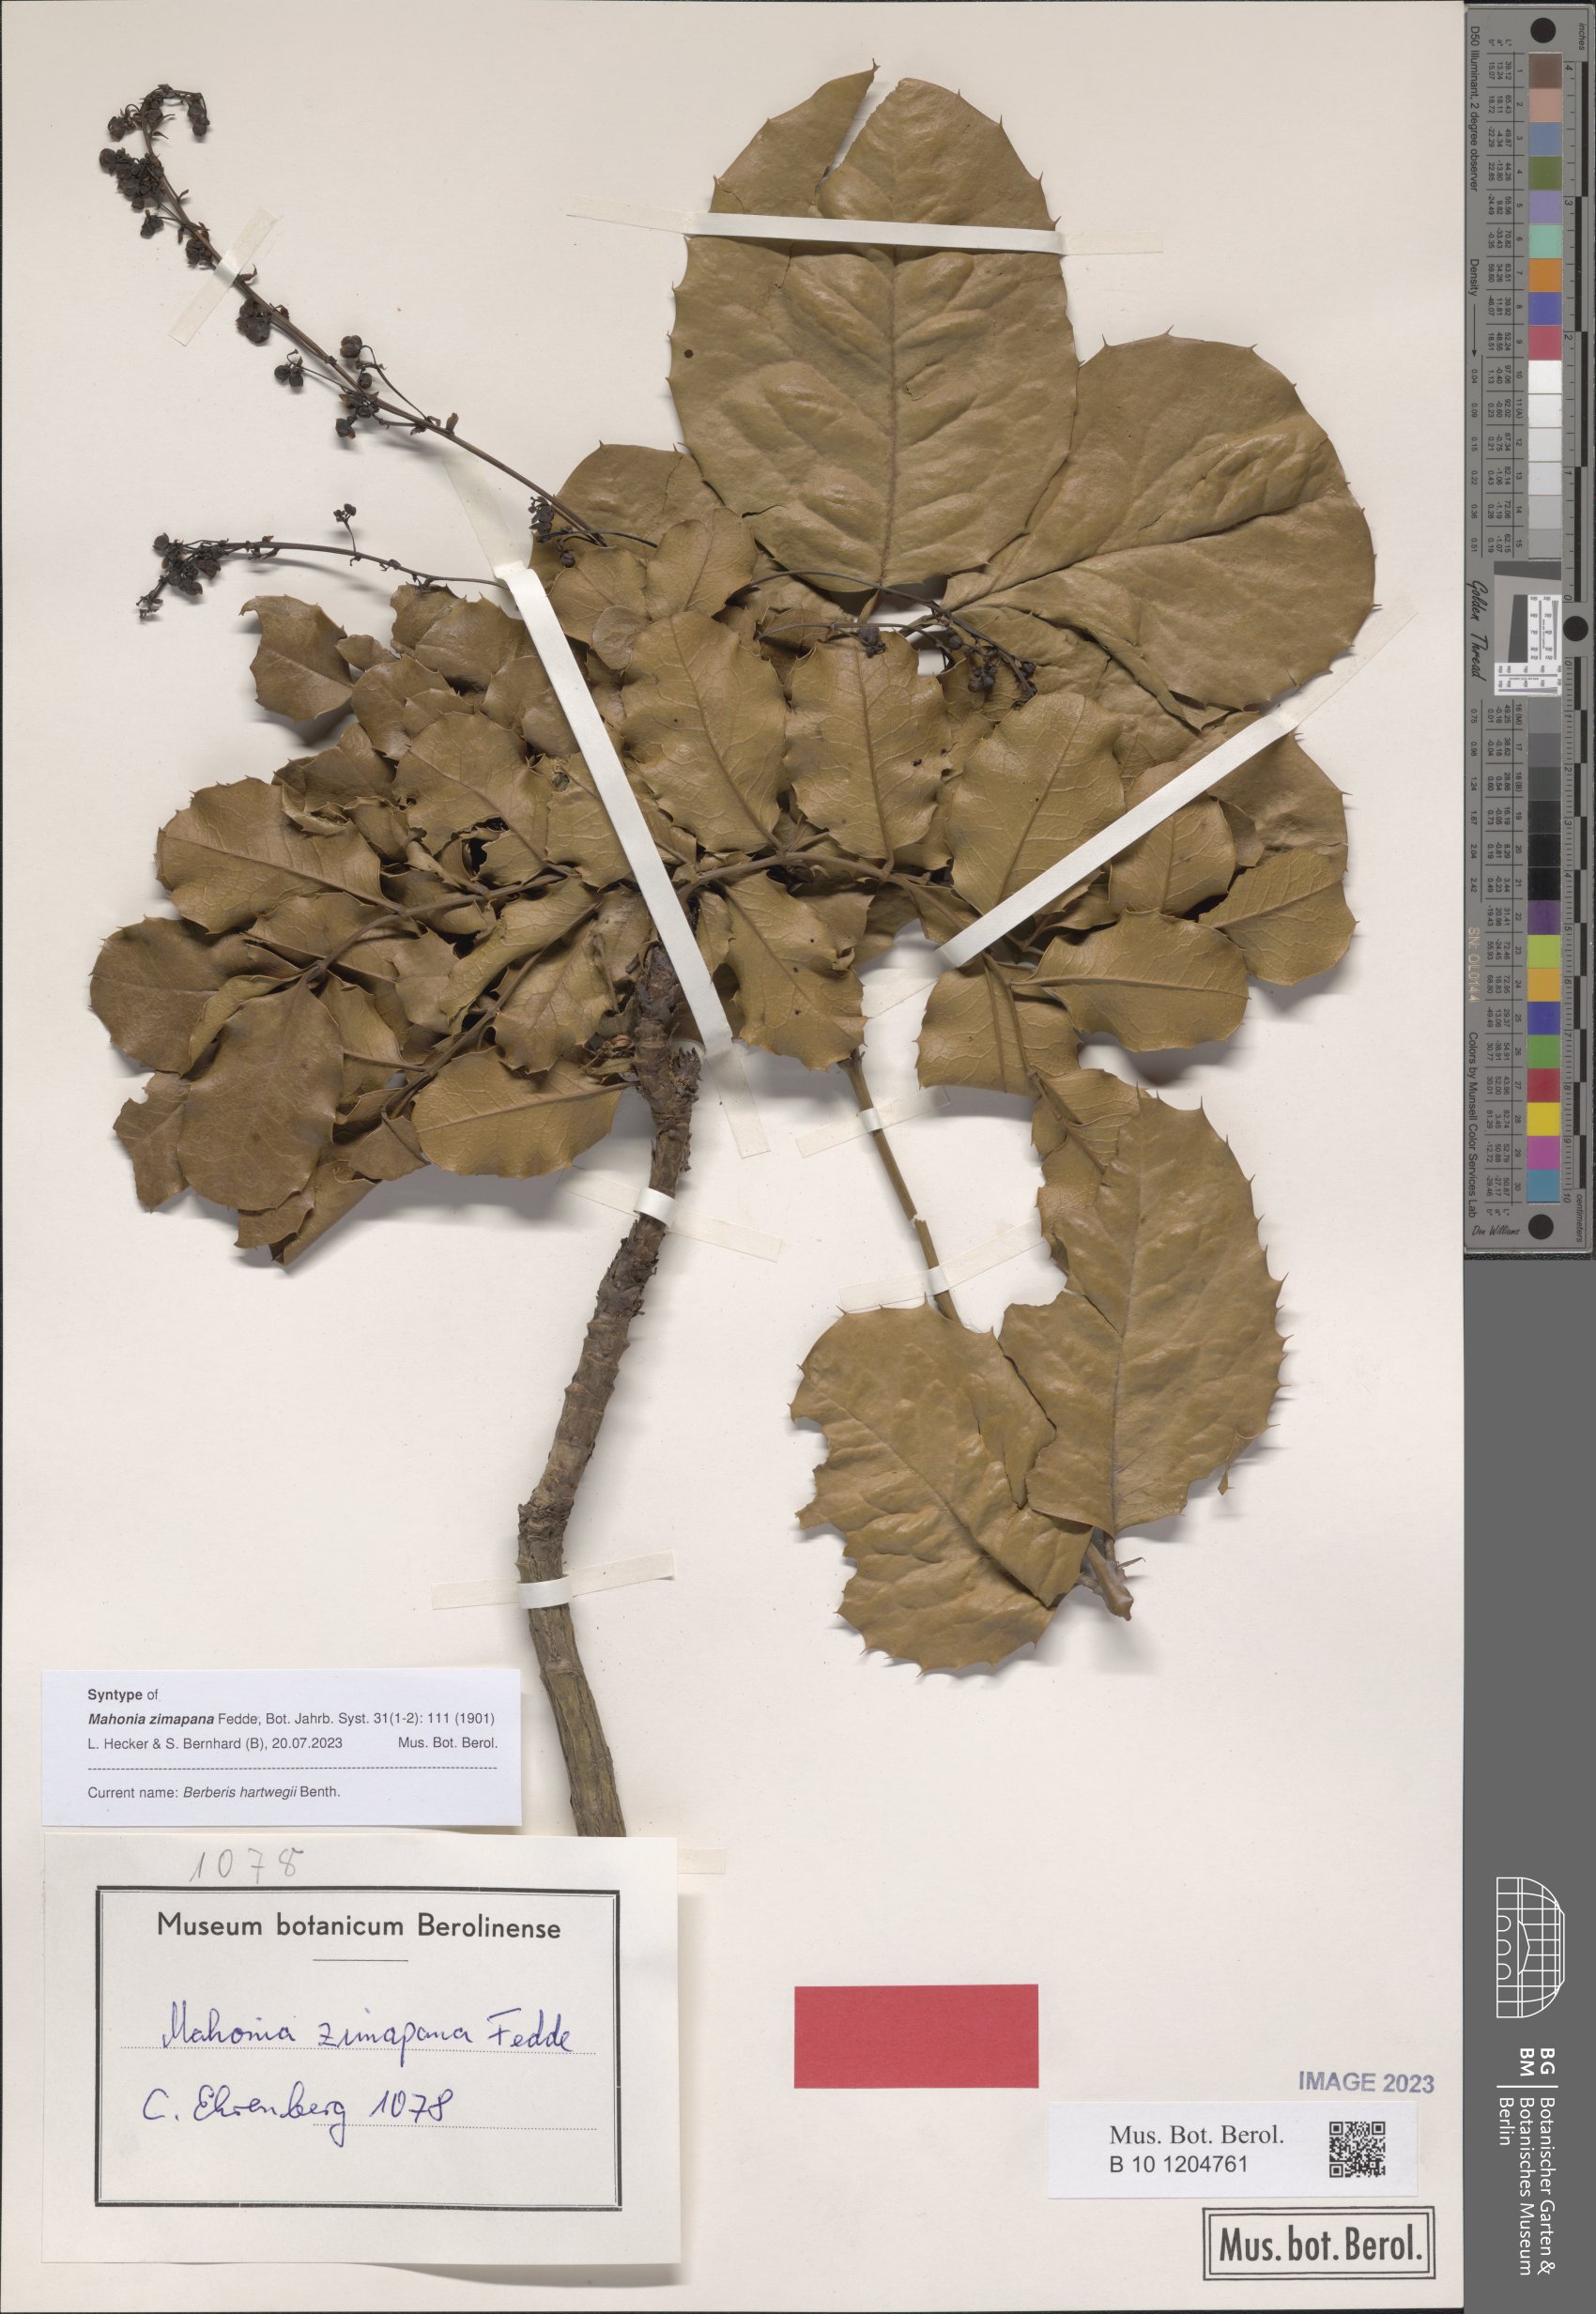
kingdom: Plantae
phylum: Tracheophyta
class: Magnoliopsida
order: Ranunculales
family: Berberidaceae
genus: Mahonia
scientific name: Mahonia hartwegii
